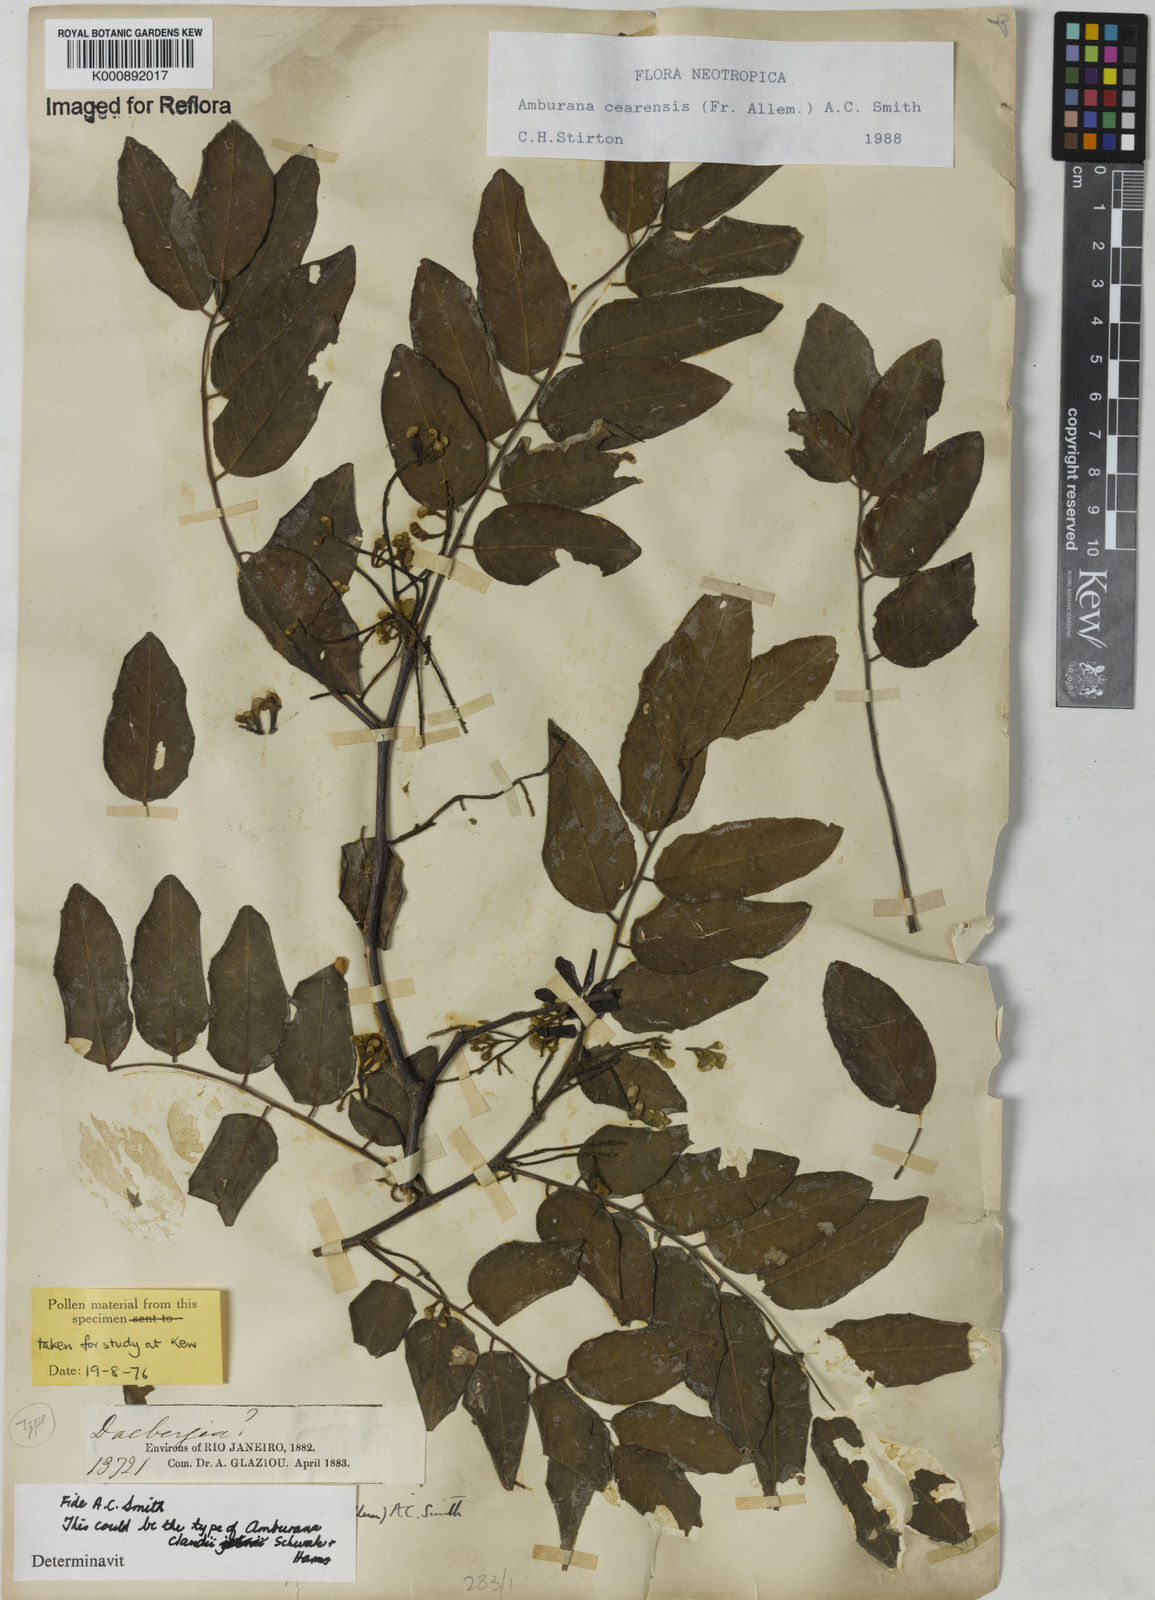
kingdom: Plantae
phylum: Tracheophyta
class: Magnoliopsida
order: Fabales
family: Fabaceae
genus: Amburana
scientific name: Amburana
